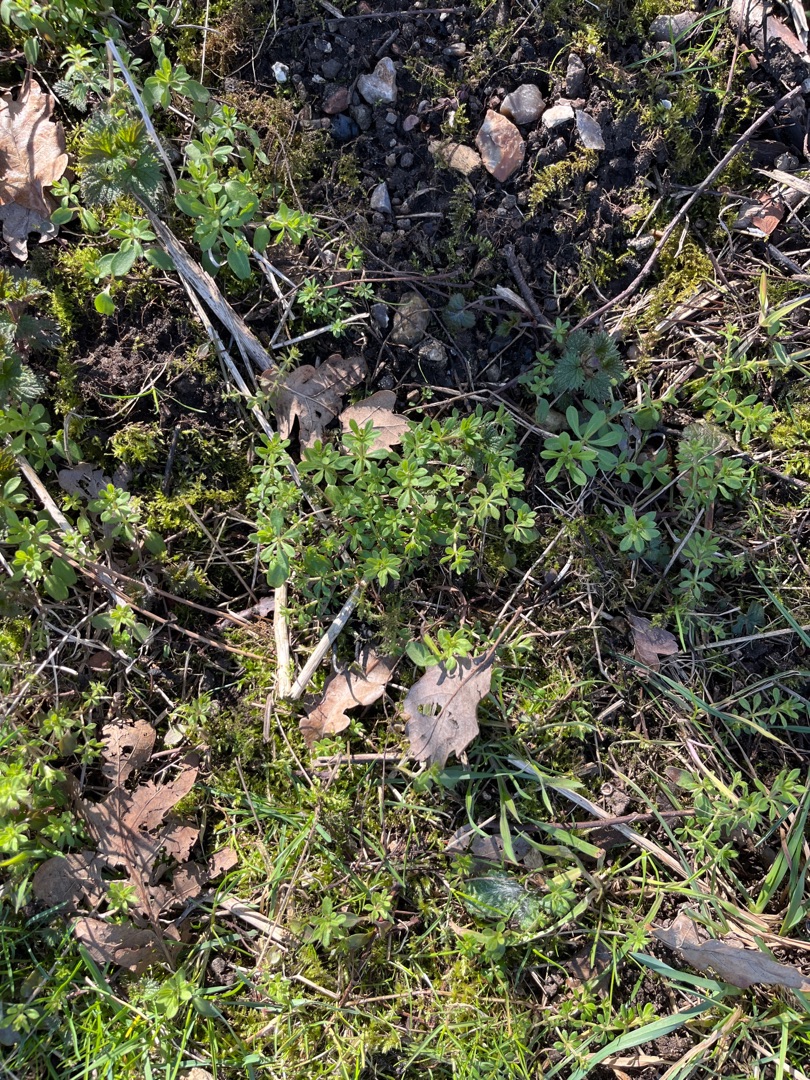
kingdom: Plantae
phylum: Tracheophyta
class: Magnoliopsida
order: Gentianales
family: Rubiaceae
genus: Galium
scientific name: Galium aparine
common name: Burre-snerre
